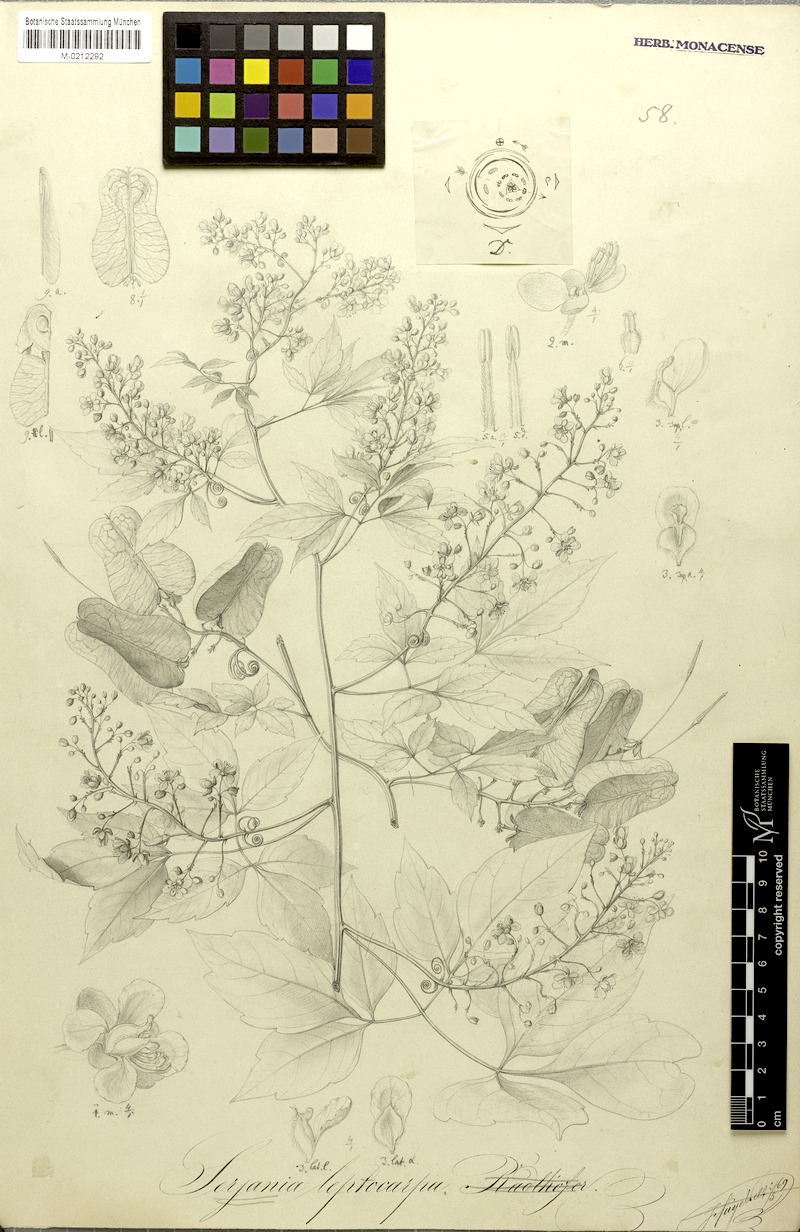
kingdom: Plantae
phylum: Tracheophyta
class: Magnoliopsida
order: Sapindales
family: Sapindaceae
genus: Serjania
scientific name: Serjania leptocarpa
